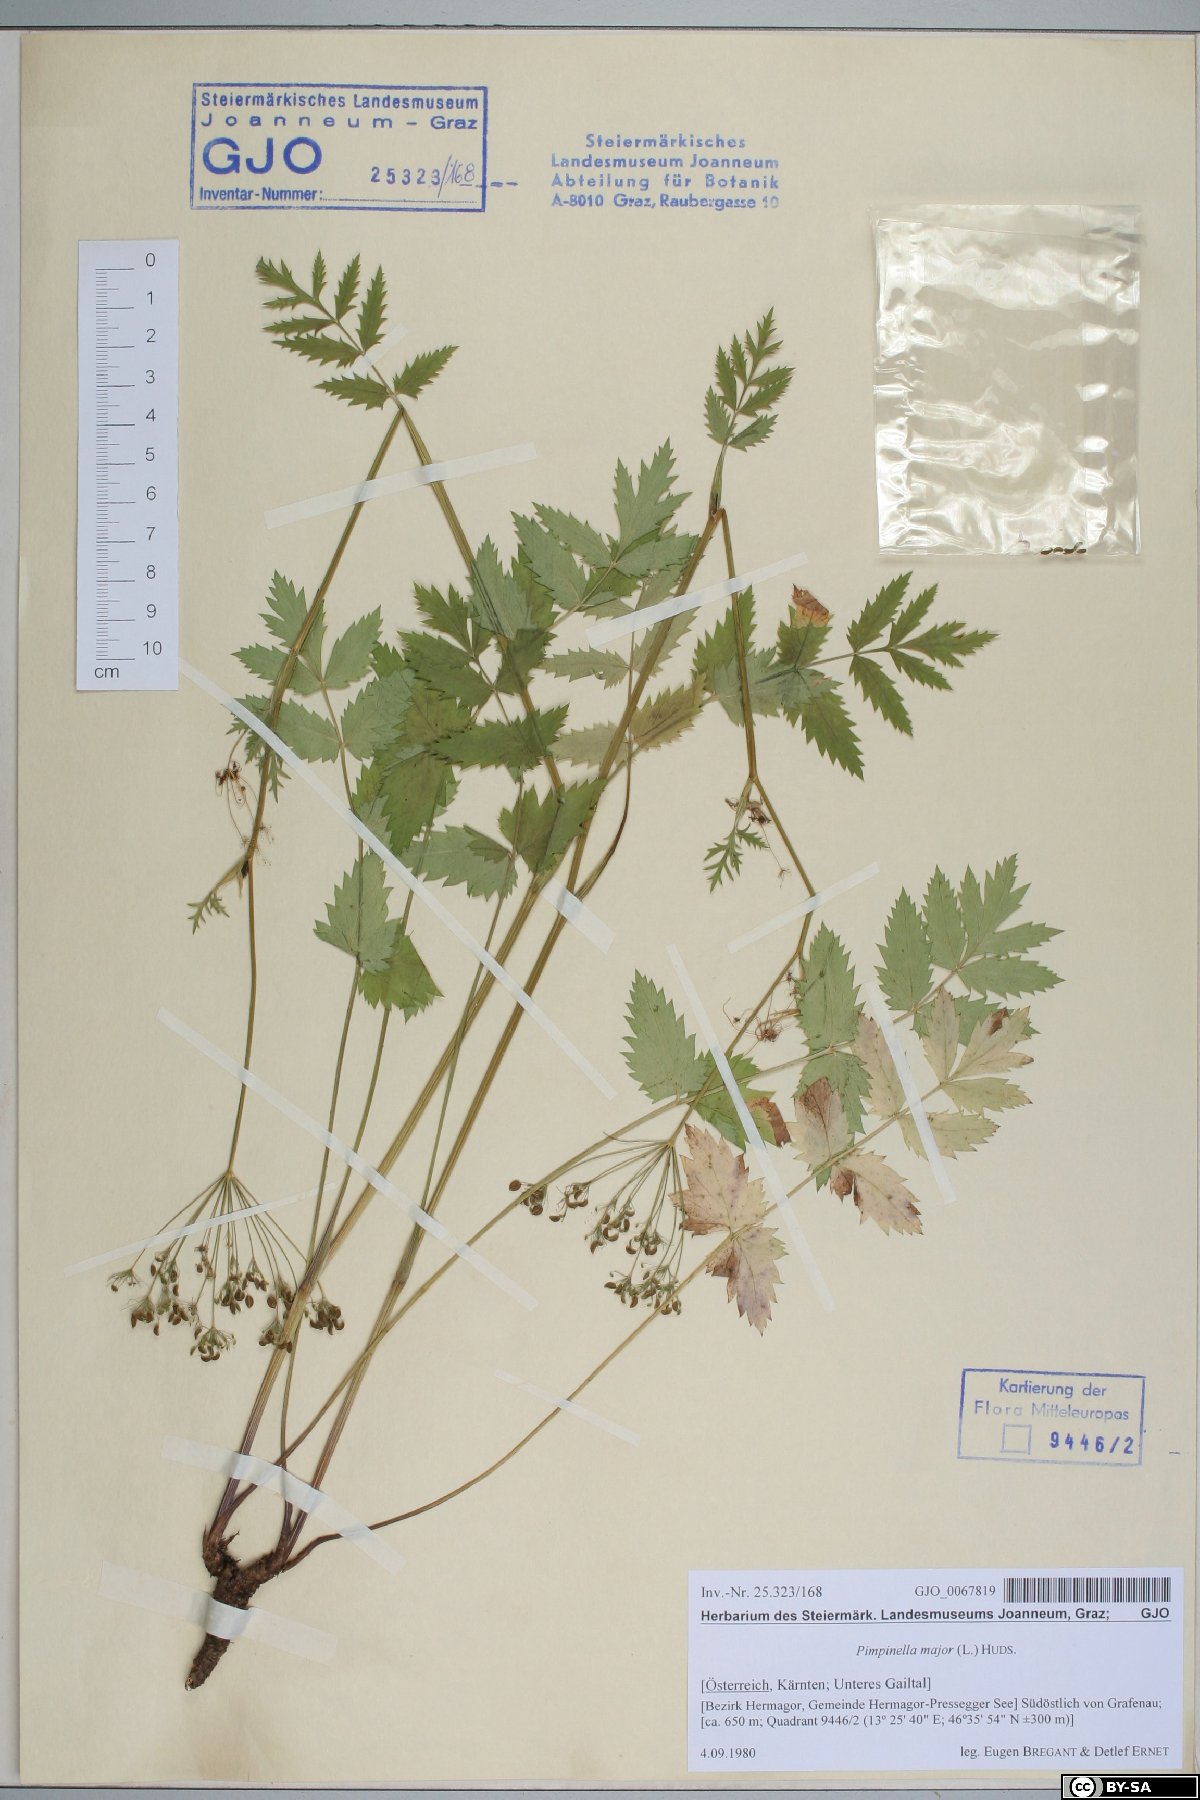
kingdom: Plantae
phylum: Tracheophyta
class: Magnoliopsida
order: Apiales
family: Apiaceae
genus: Pimpinella
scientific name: Pimpinella major
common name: Greater burnet-saxifrage
